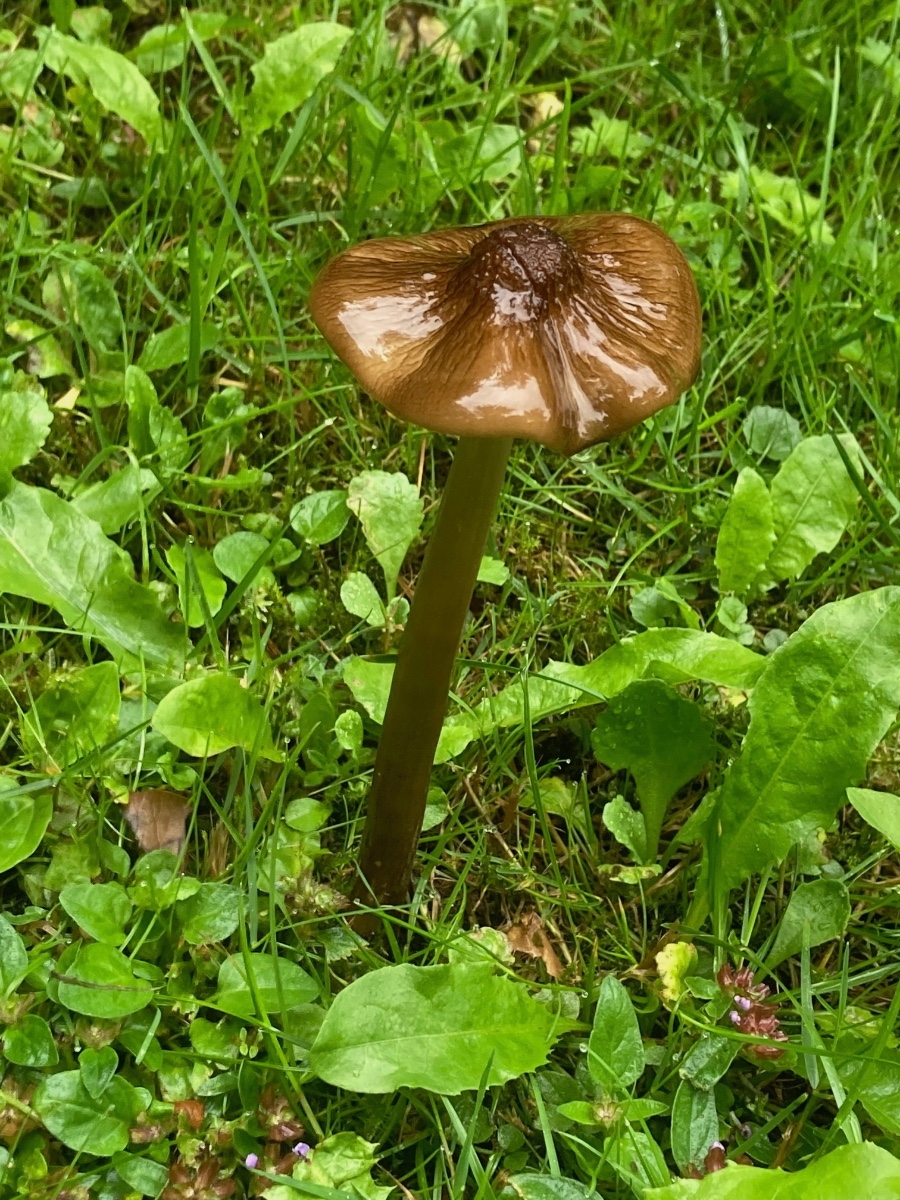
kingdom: Fungi
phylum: Basidiomycota
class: Agaricomycetes
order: Agaricales
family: Physalacriaceae
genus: Hymenopellis
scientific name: Hymenopellis radicata
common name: almindelig pælerodshat
